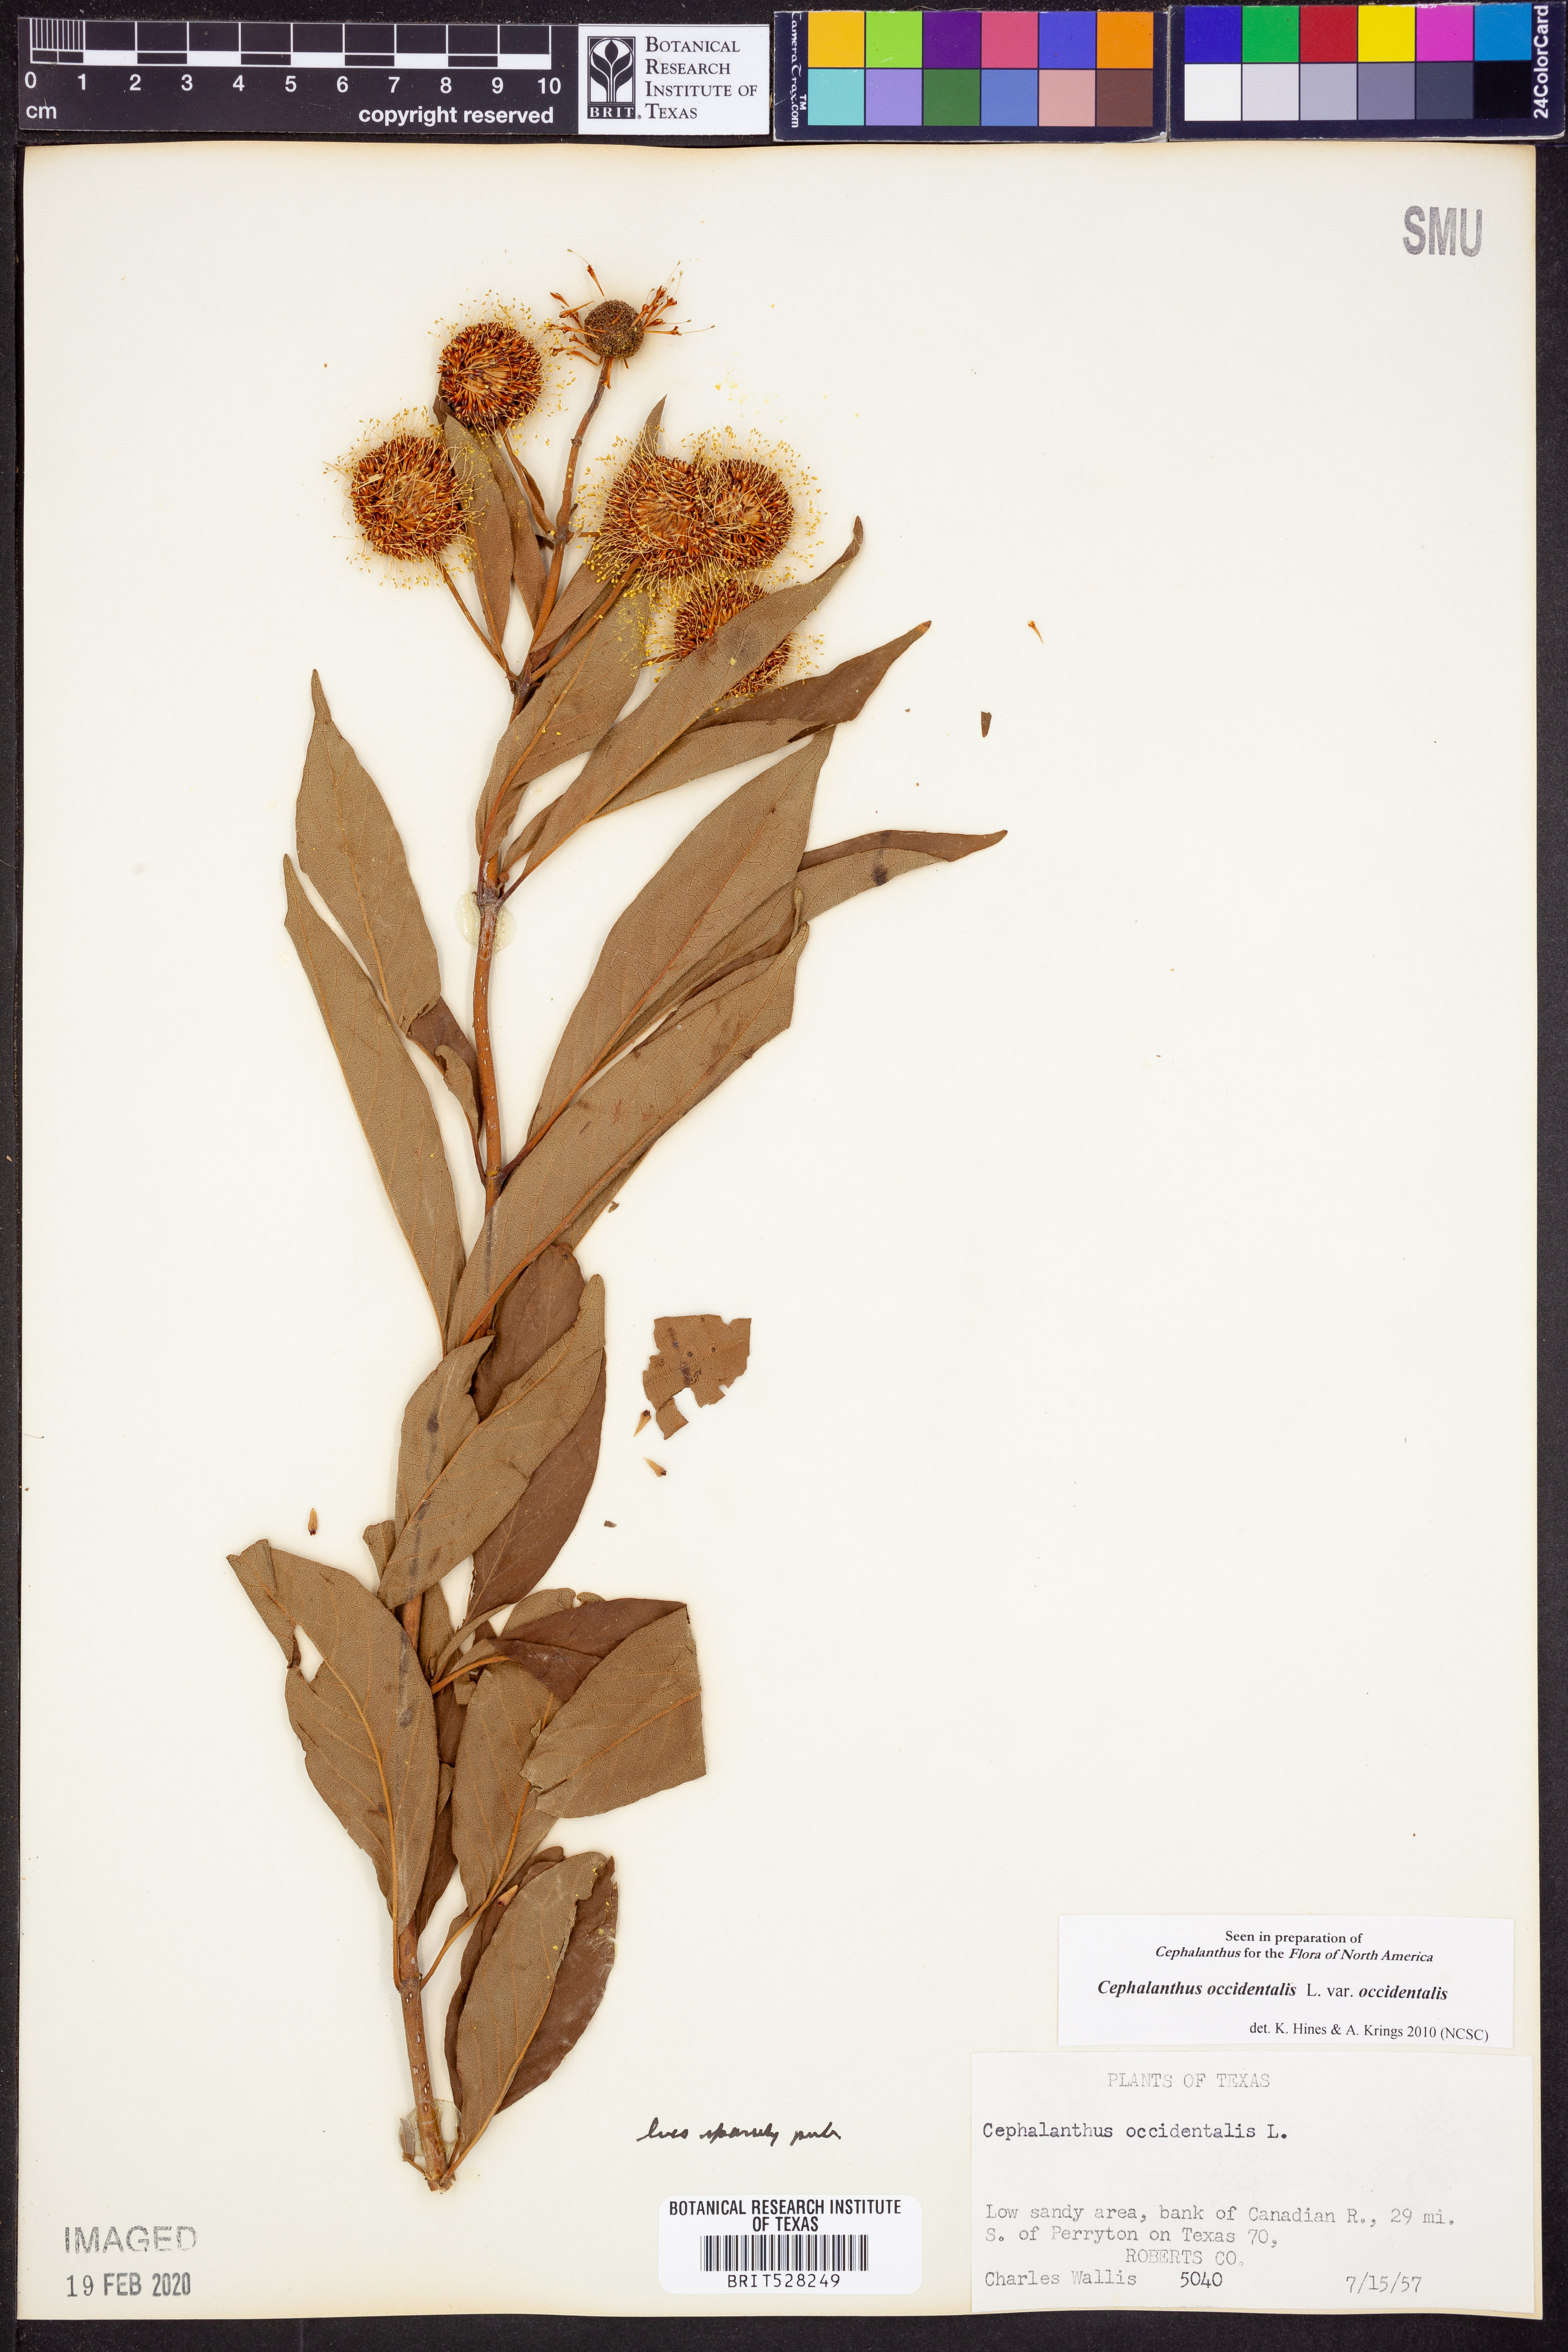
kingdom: Plantae
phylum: Tracheophyta
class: Magnoliopsida
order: Gentianales
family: Rubiaceae
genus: Cephalanthus
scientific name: Cephalanthus occidentalis
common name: Button-willow
